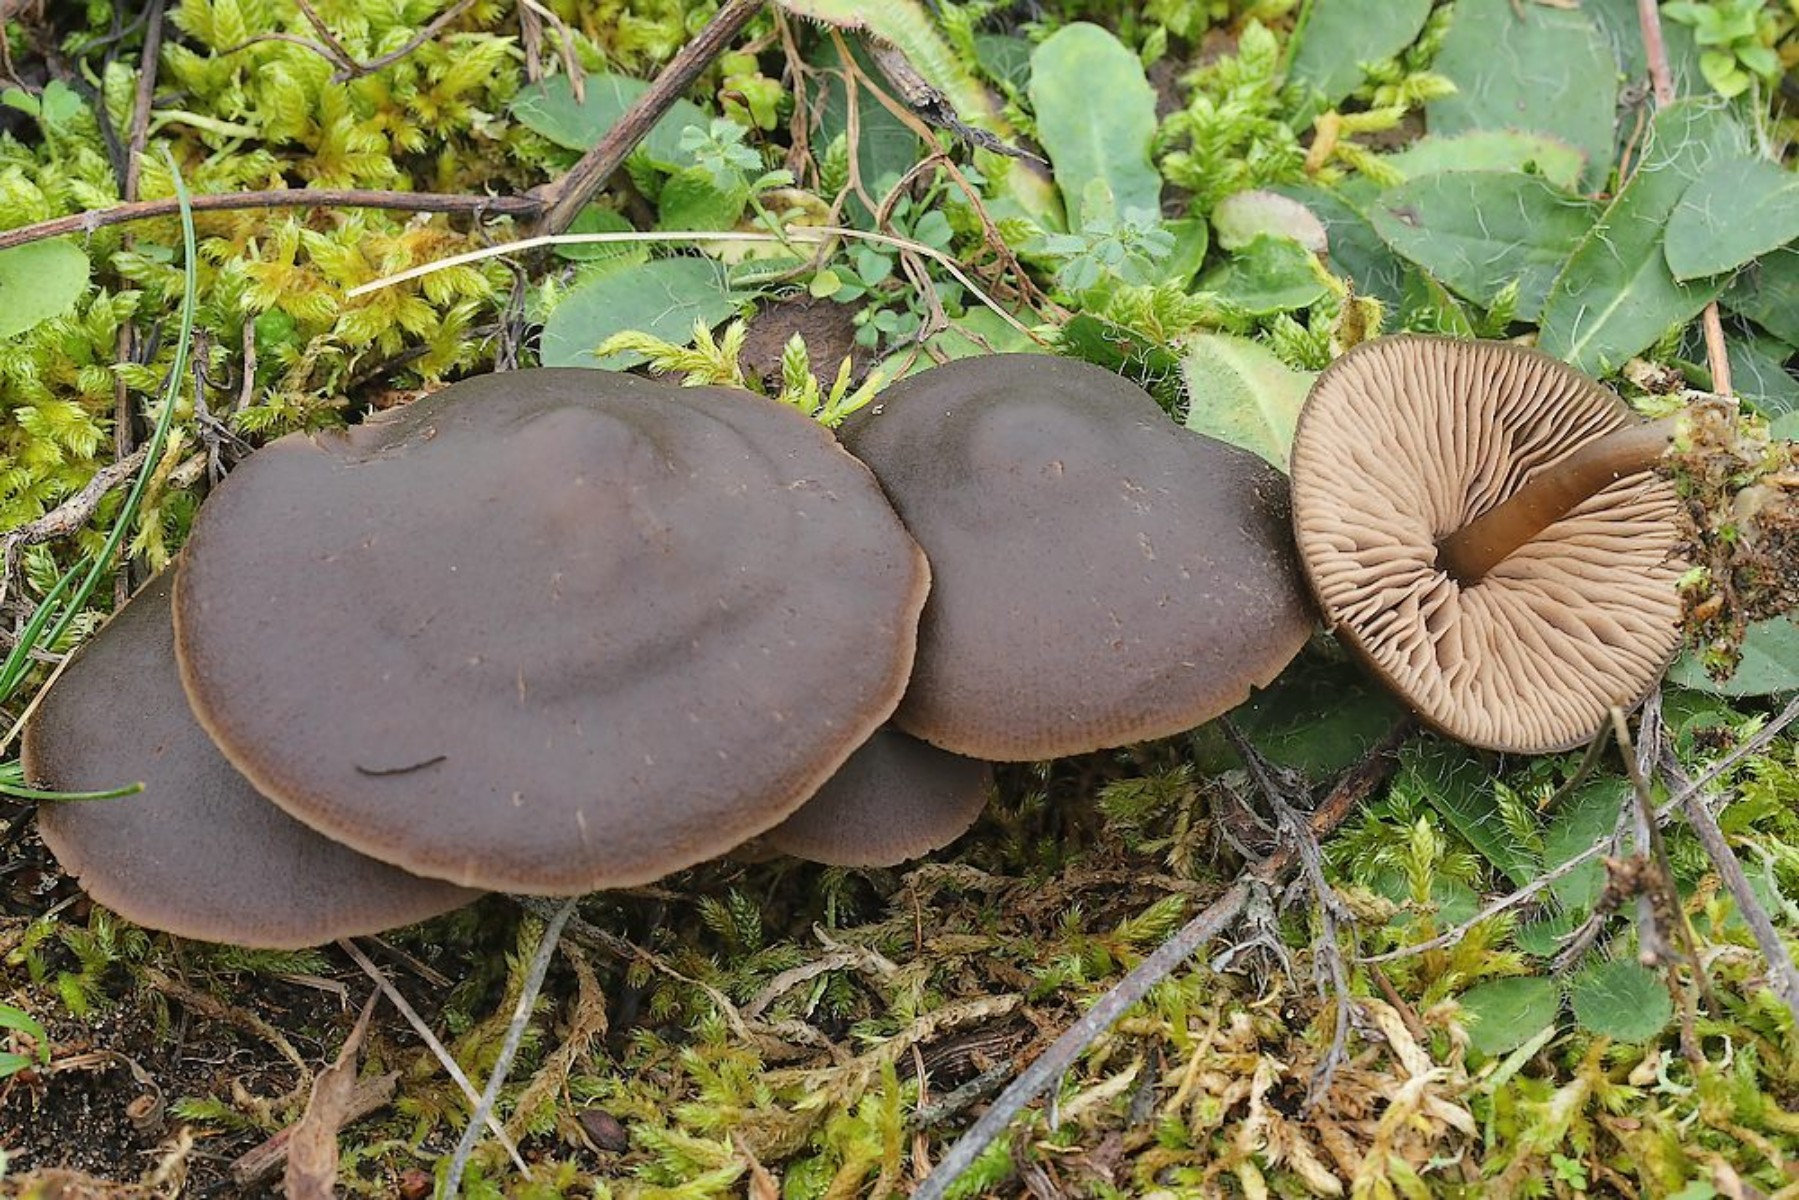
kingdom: Fungi
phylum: Basidiomycota
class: Agaricomycetes
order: Agaricales
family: Entolomataceae
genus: Entoloma
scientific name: Entoloma vindobonense
